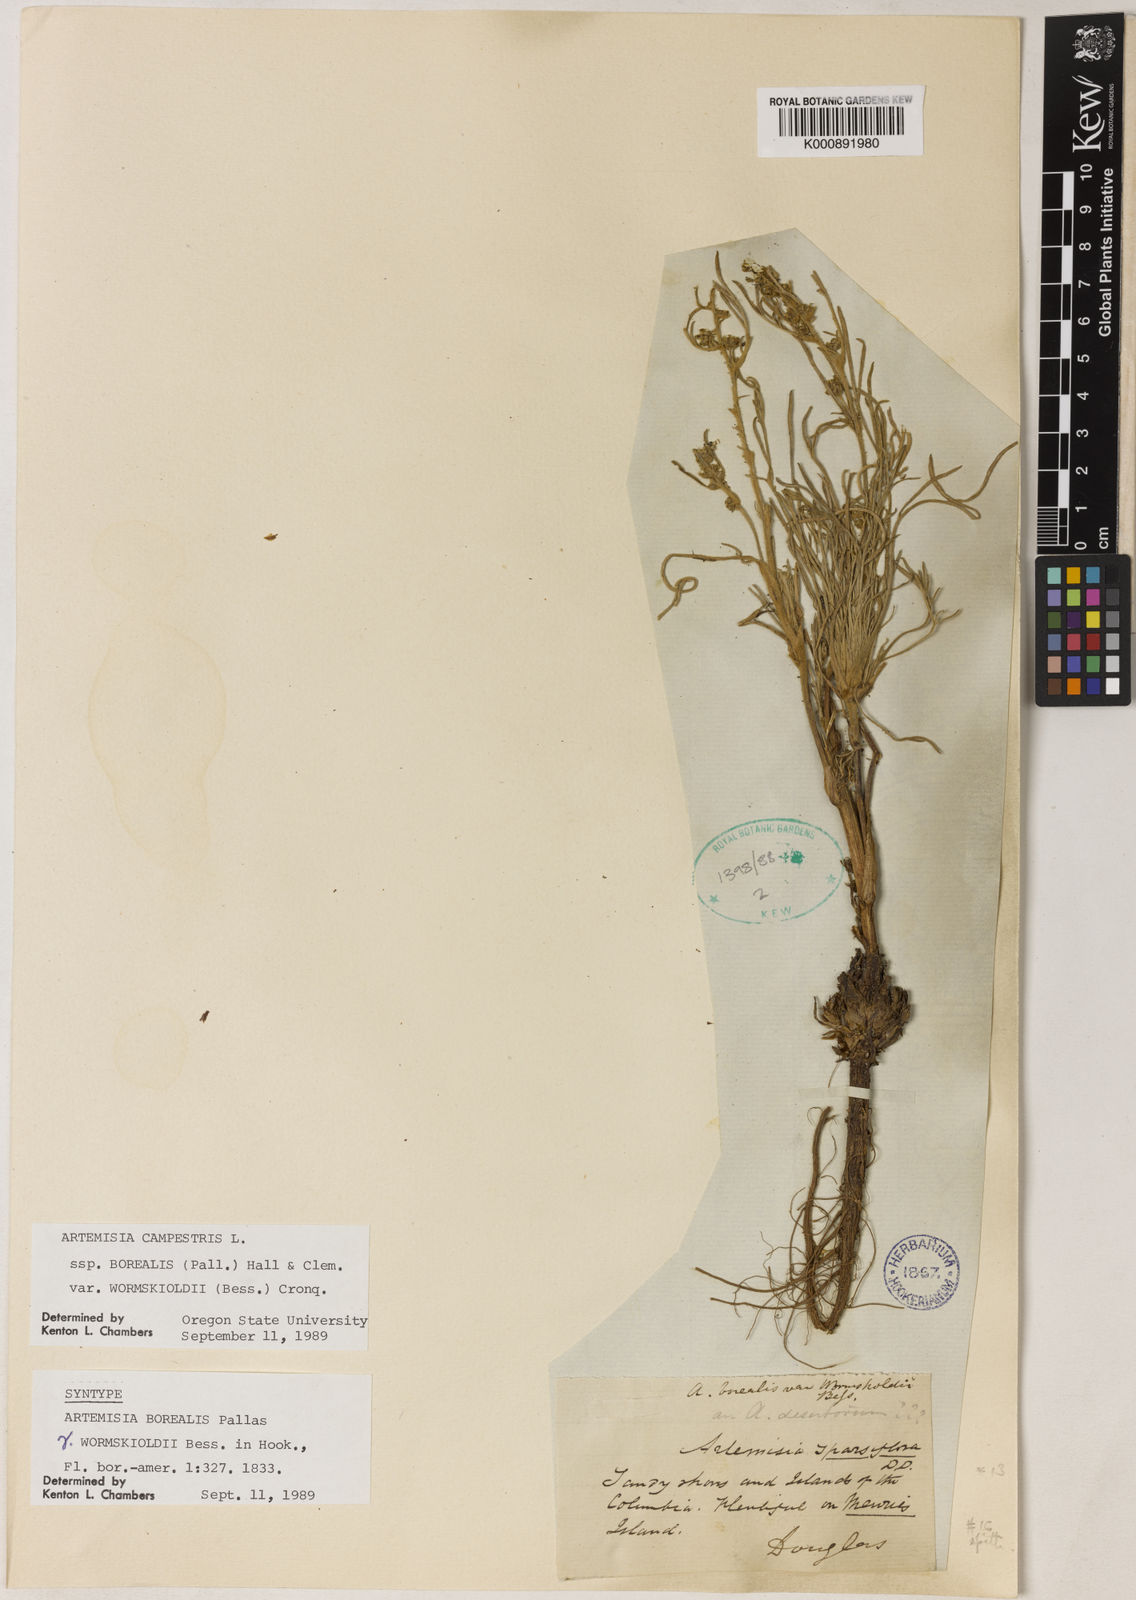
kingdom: Plantae
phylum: Tracheophyta
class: Magnoliopsida
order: Asterales
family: Asteraceae
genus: Artemisia
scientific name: Artemisia borealis
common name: Boreal sage
